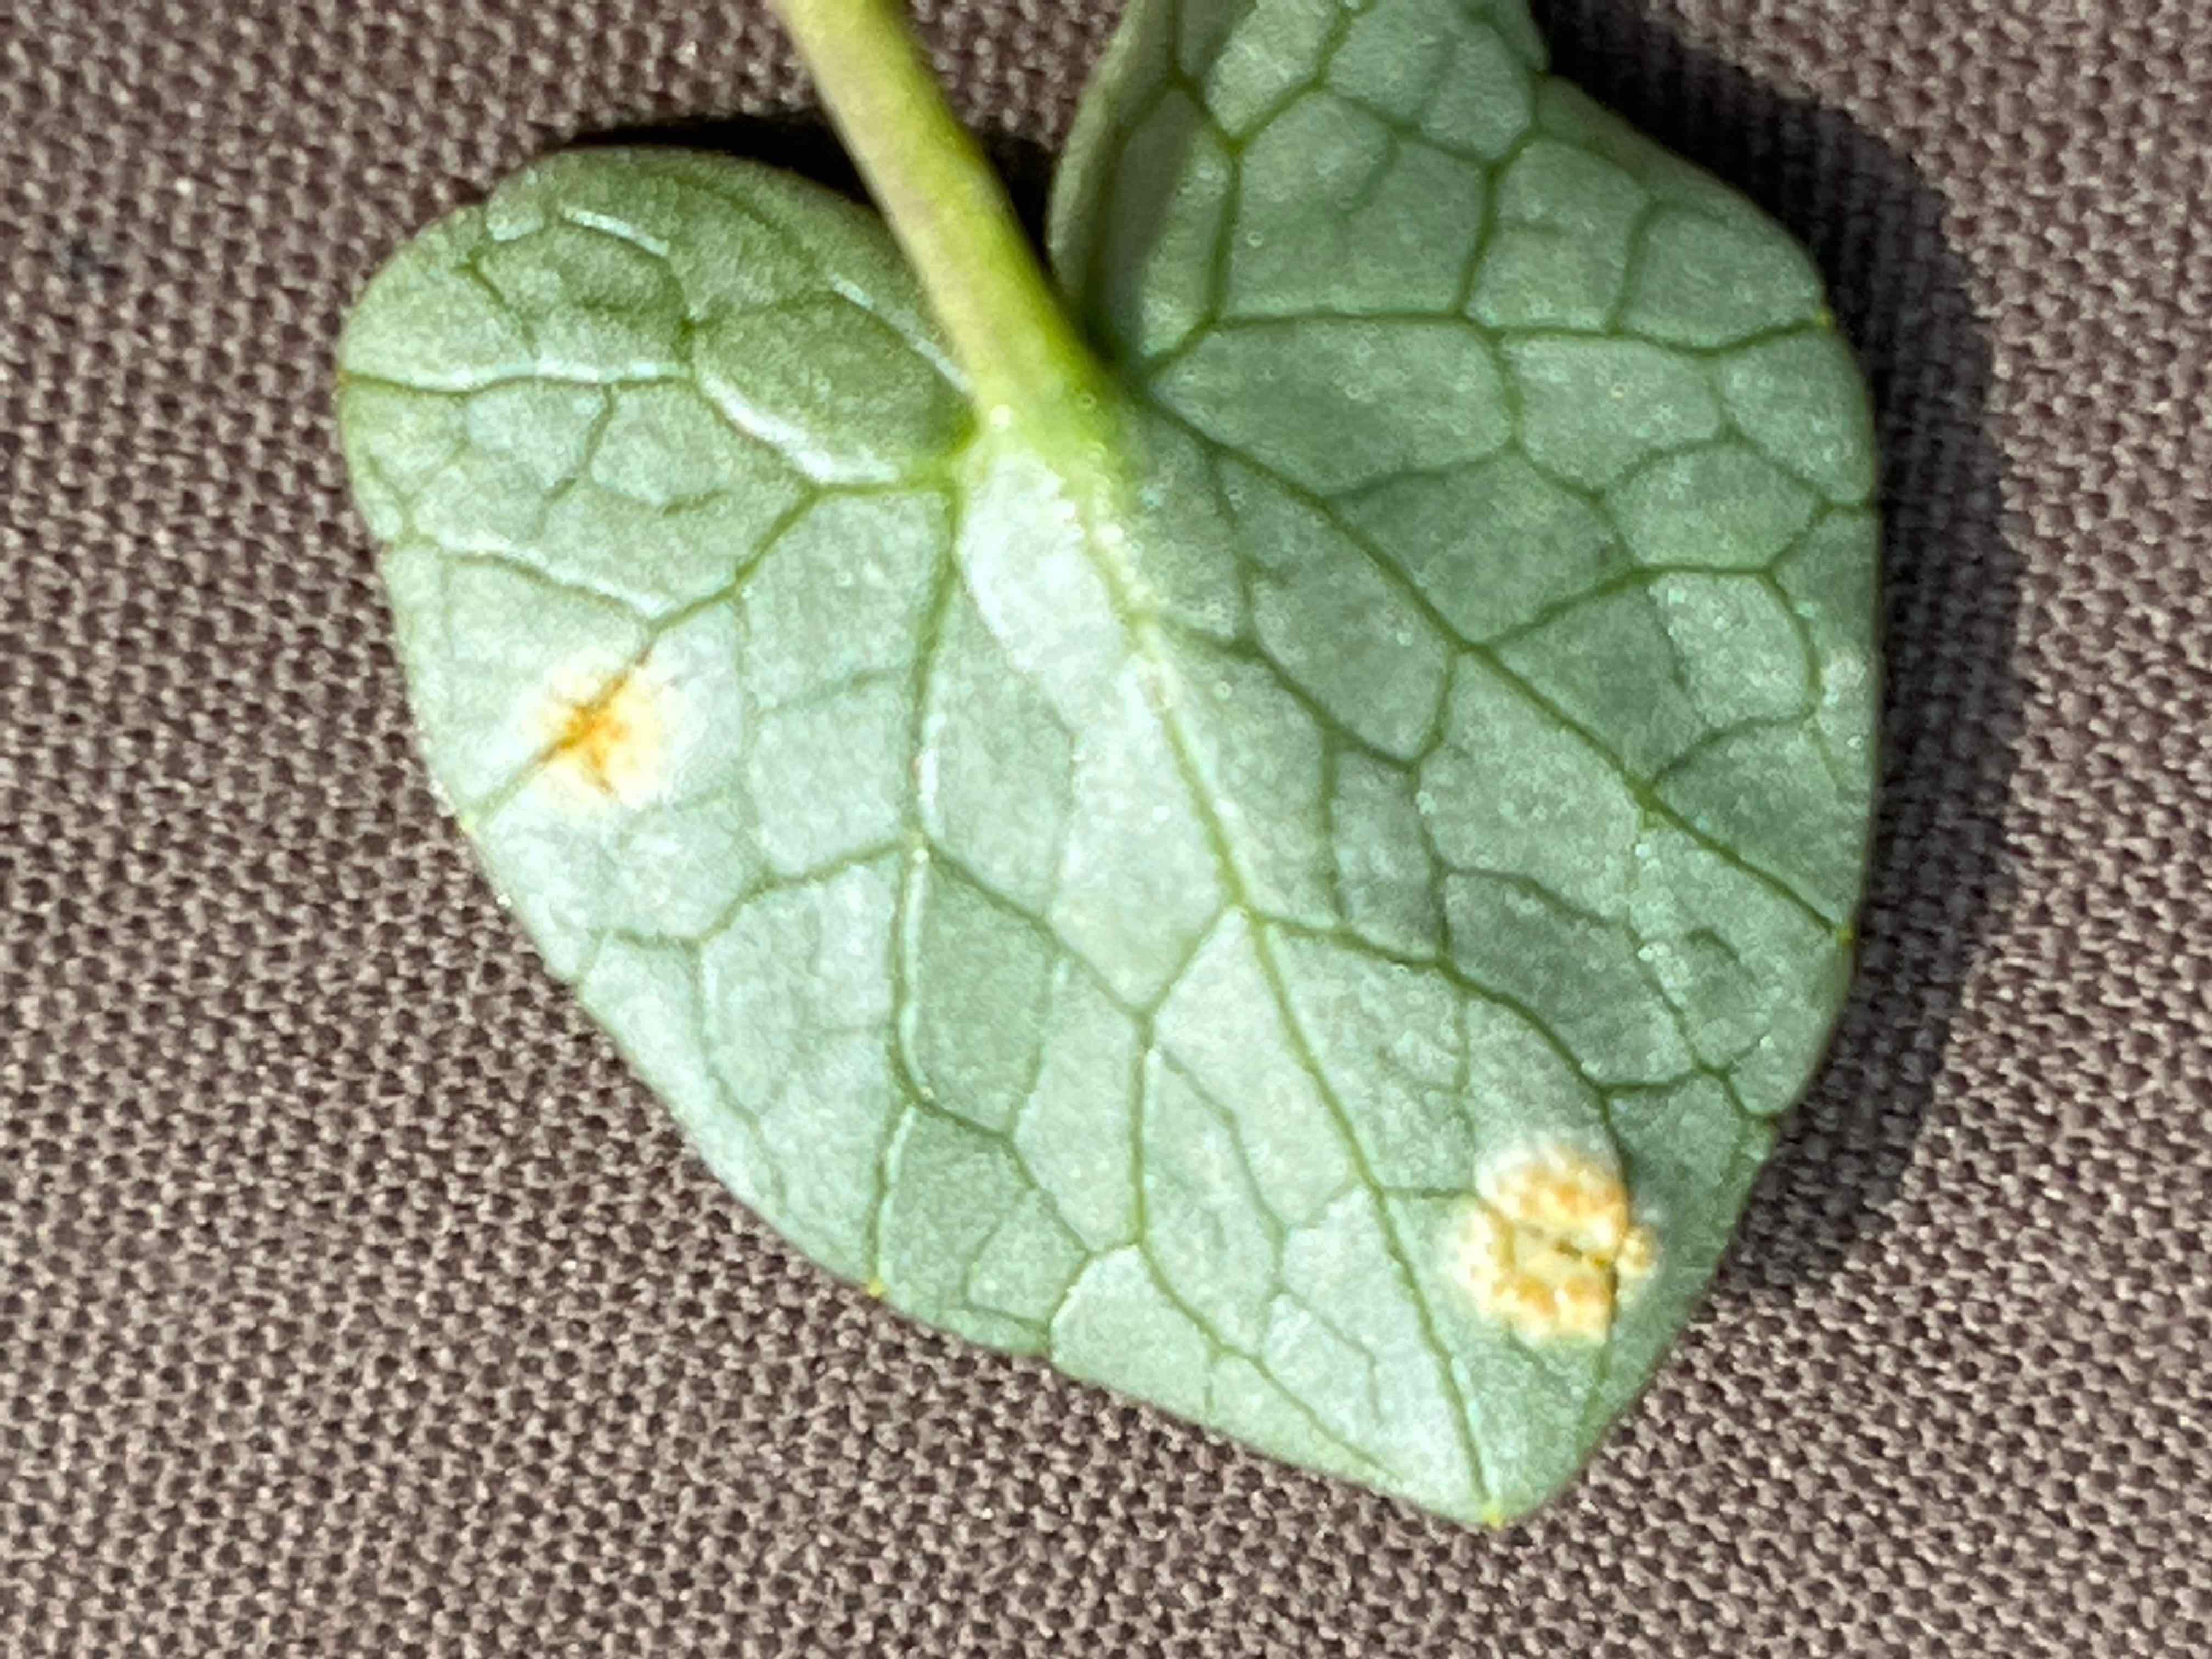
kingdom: Fungi
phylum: Basidiomycota
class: Pucciniomycetes
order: Pucciniales
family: Pucciniaceae
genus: Uromyces
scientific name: Uromyces dactylidis
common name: ranunkel-encellerust
